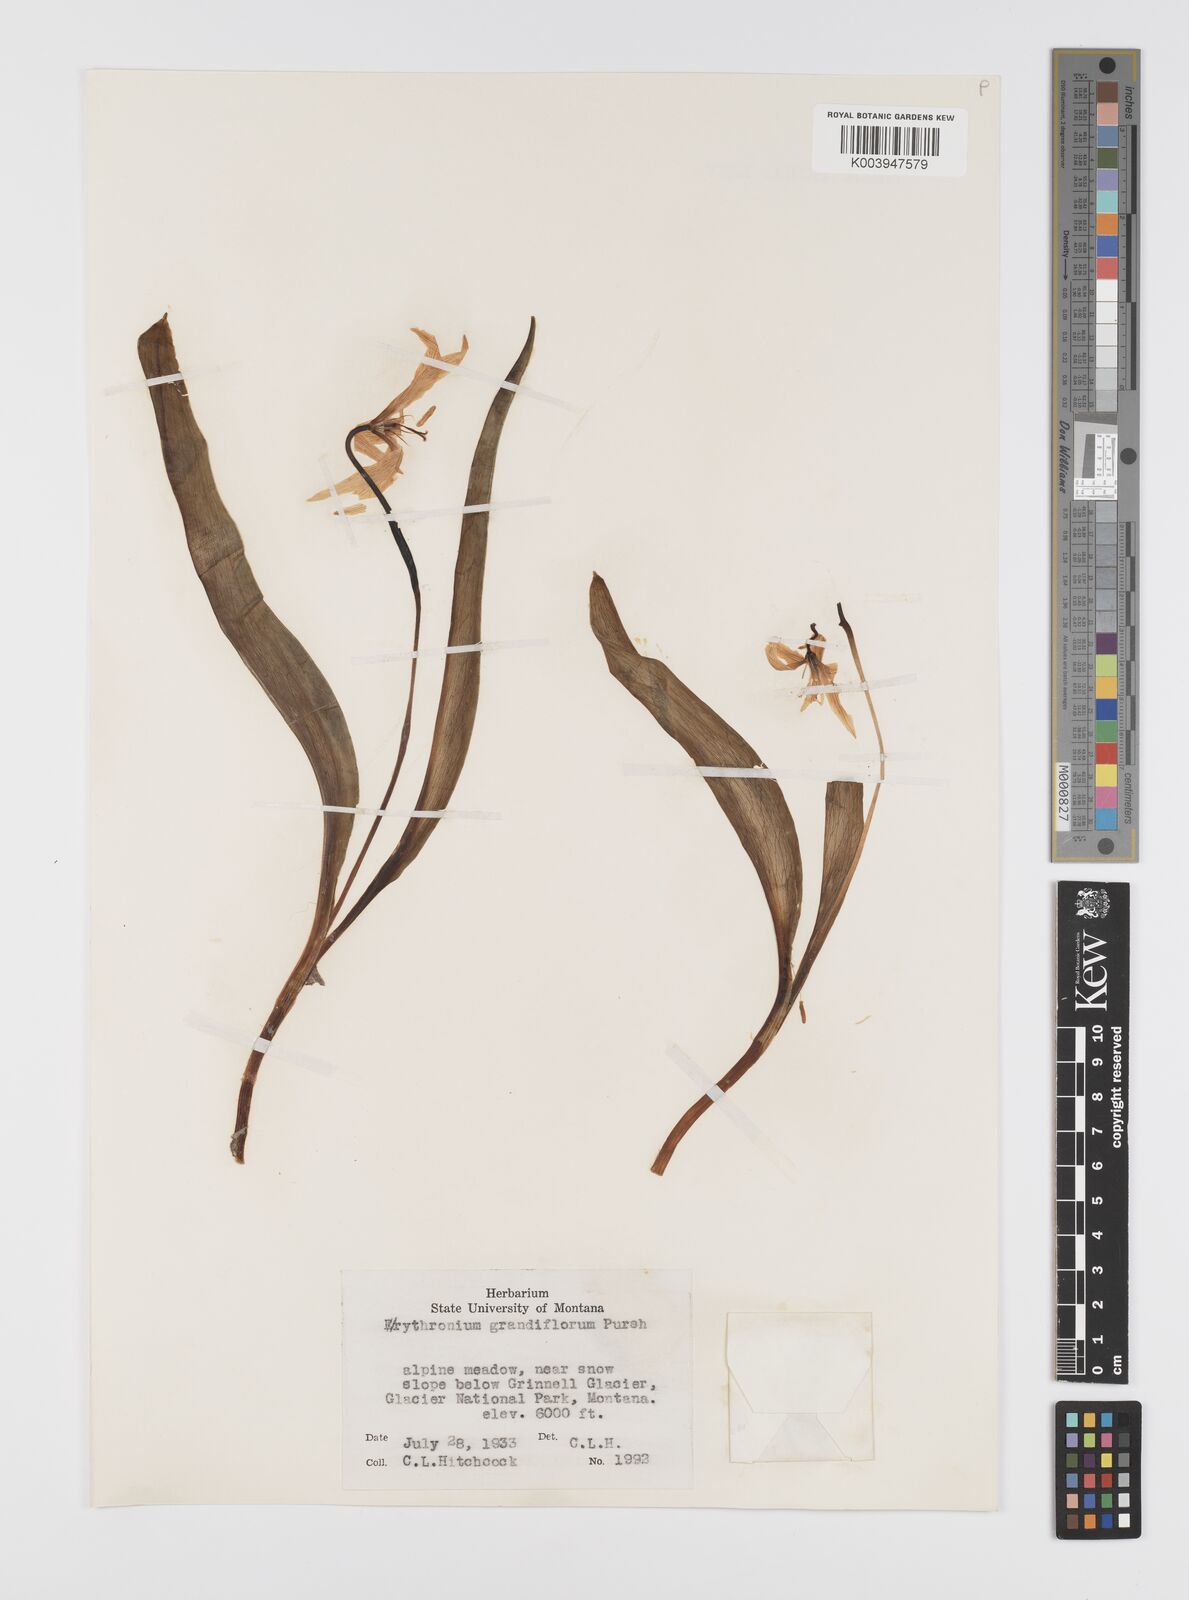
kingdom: Plantae
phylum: Tracheophyta
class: Liliopsida
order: Liliales
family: Liliaceae
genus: Erythronium
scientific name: Erythronium grandiflorum
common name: Avalanche-lily
